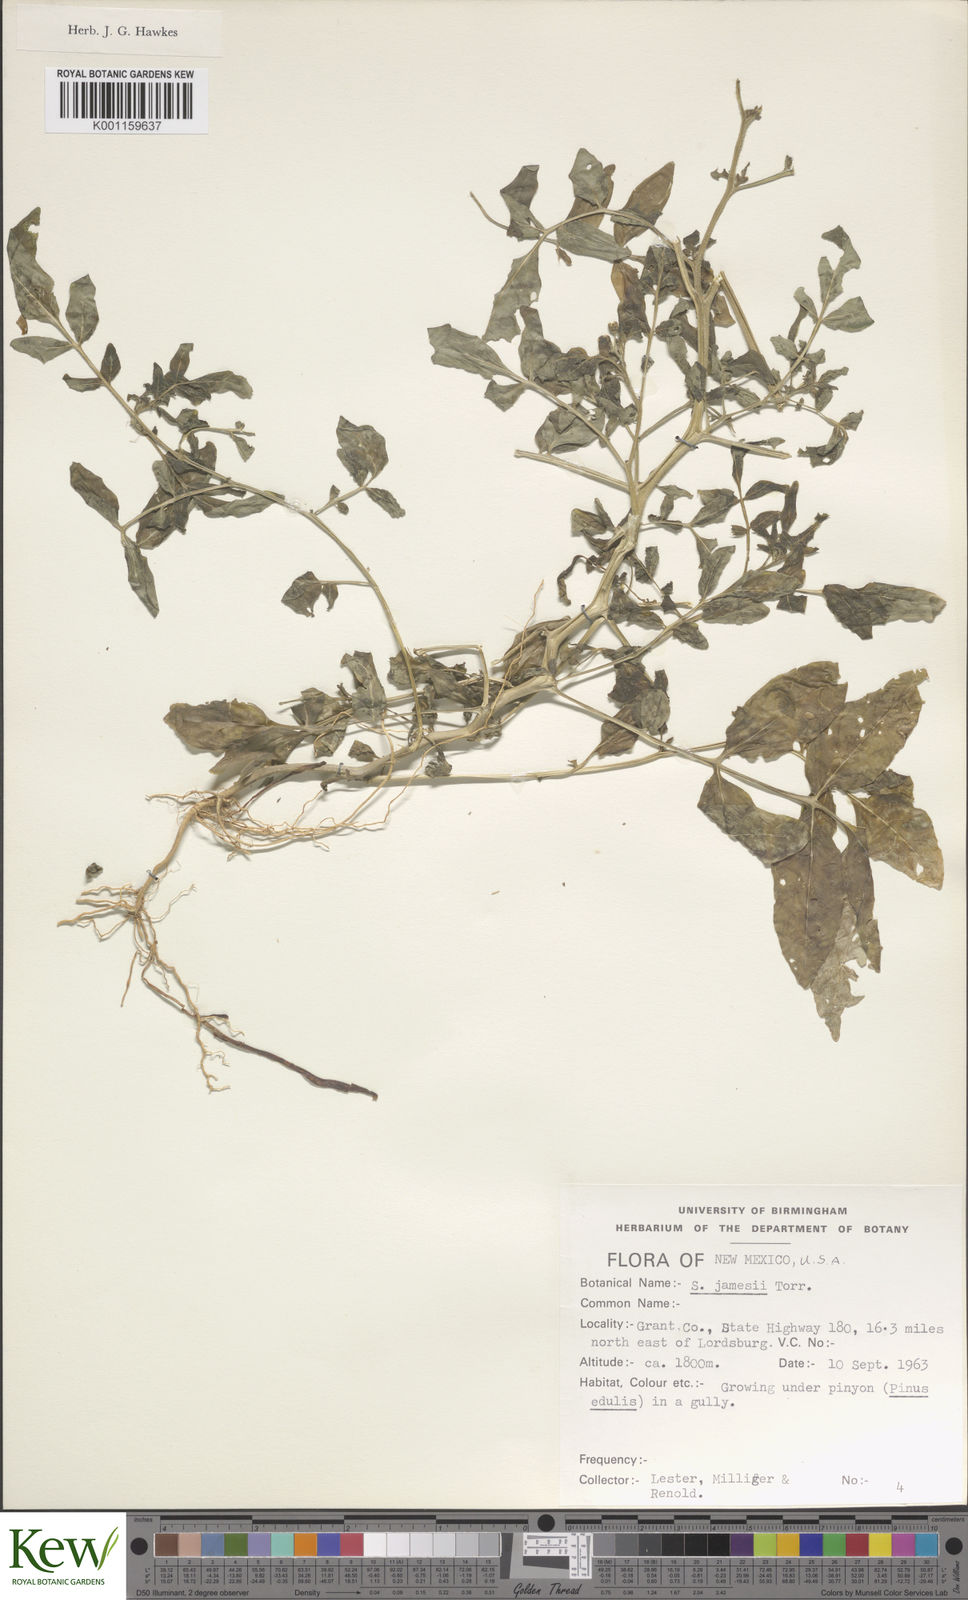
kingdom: Plantae
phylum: Tracheophyta
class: Magnoliopsida
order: Solanales
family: Solanaceae
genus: Solanum
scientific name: Solanum jamesii
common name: Wild potato
